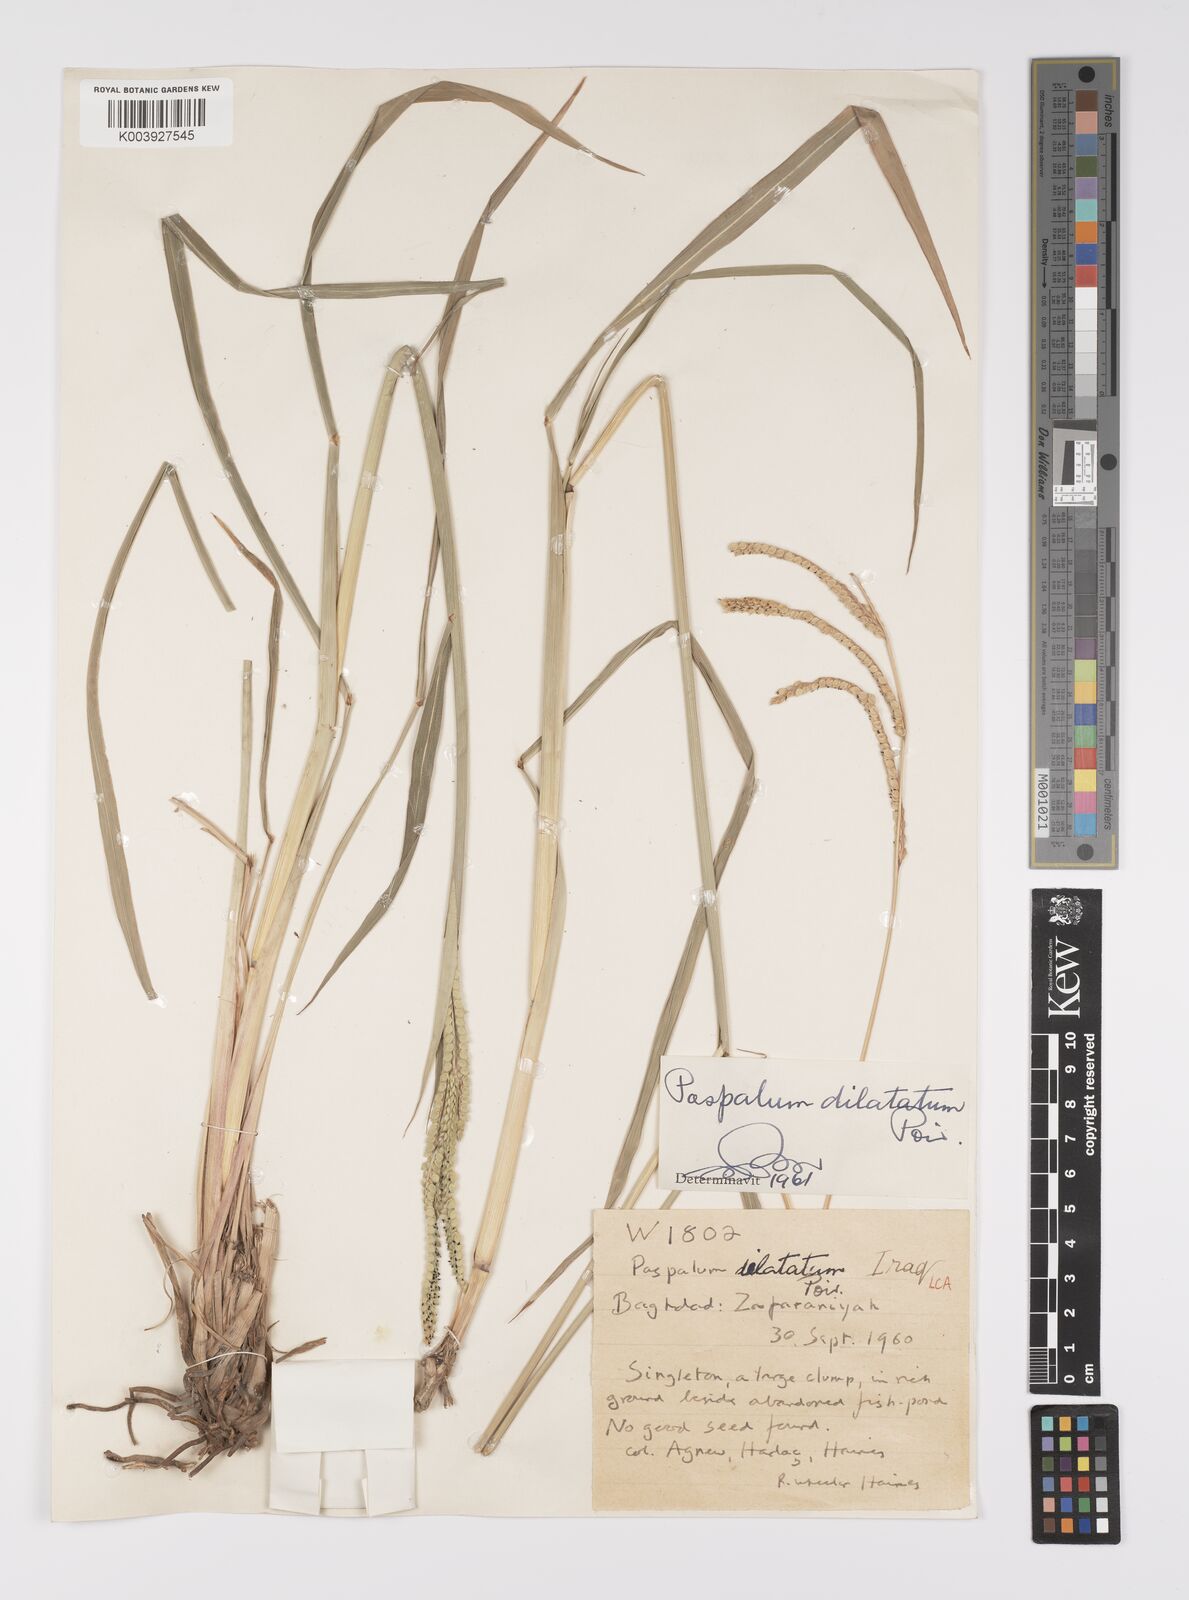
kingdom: Plantae
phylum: Tracheophyta
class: Liliopsida
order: Poales
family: Poaceae
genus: Paspalum
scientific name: Paspalum dilatatum
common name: Dallisgrass
